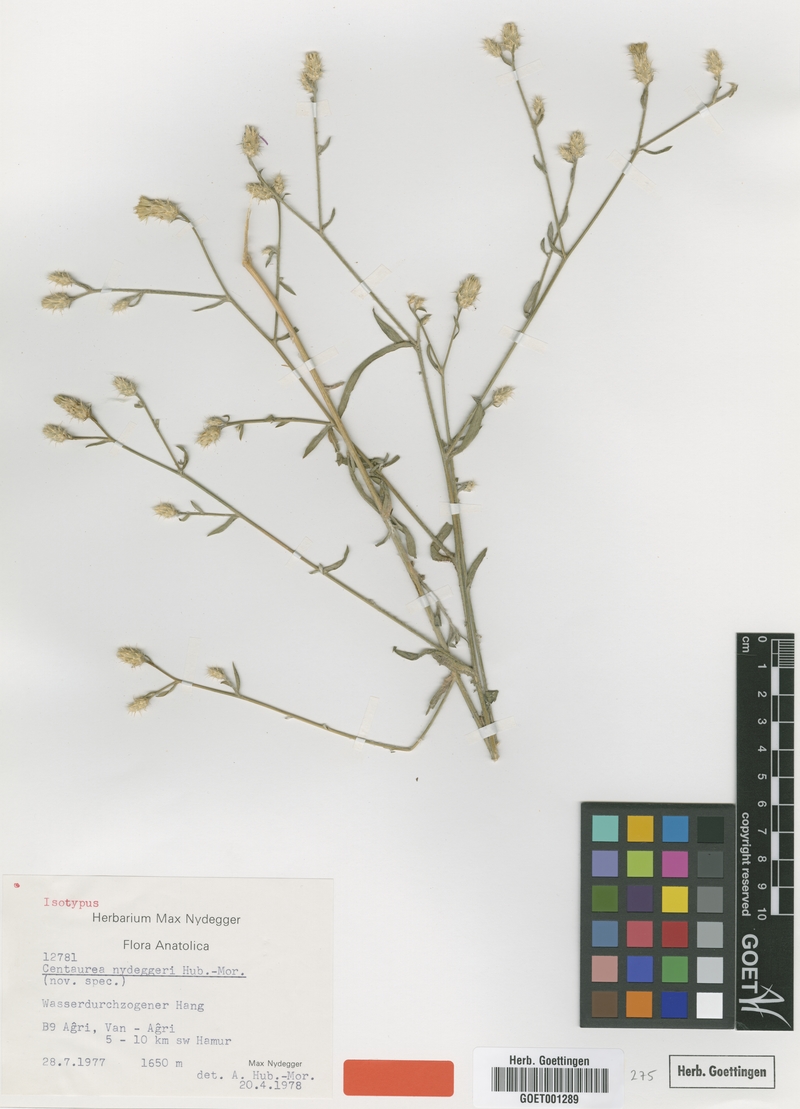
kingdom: Plantae
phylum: Tracheophyta
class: Magnoliopsida
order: Asterales
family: Asteraceae
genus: Centaurea
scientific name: Centaurea nydeggerei
